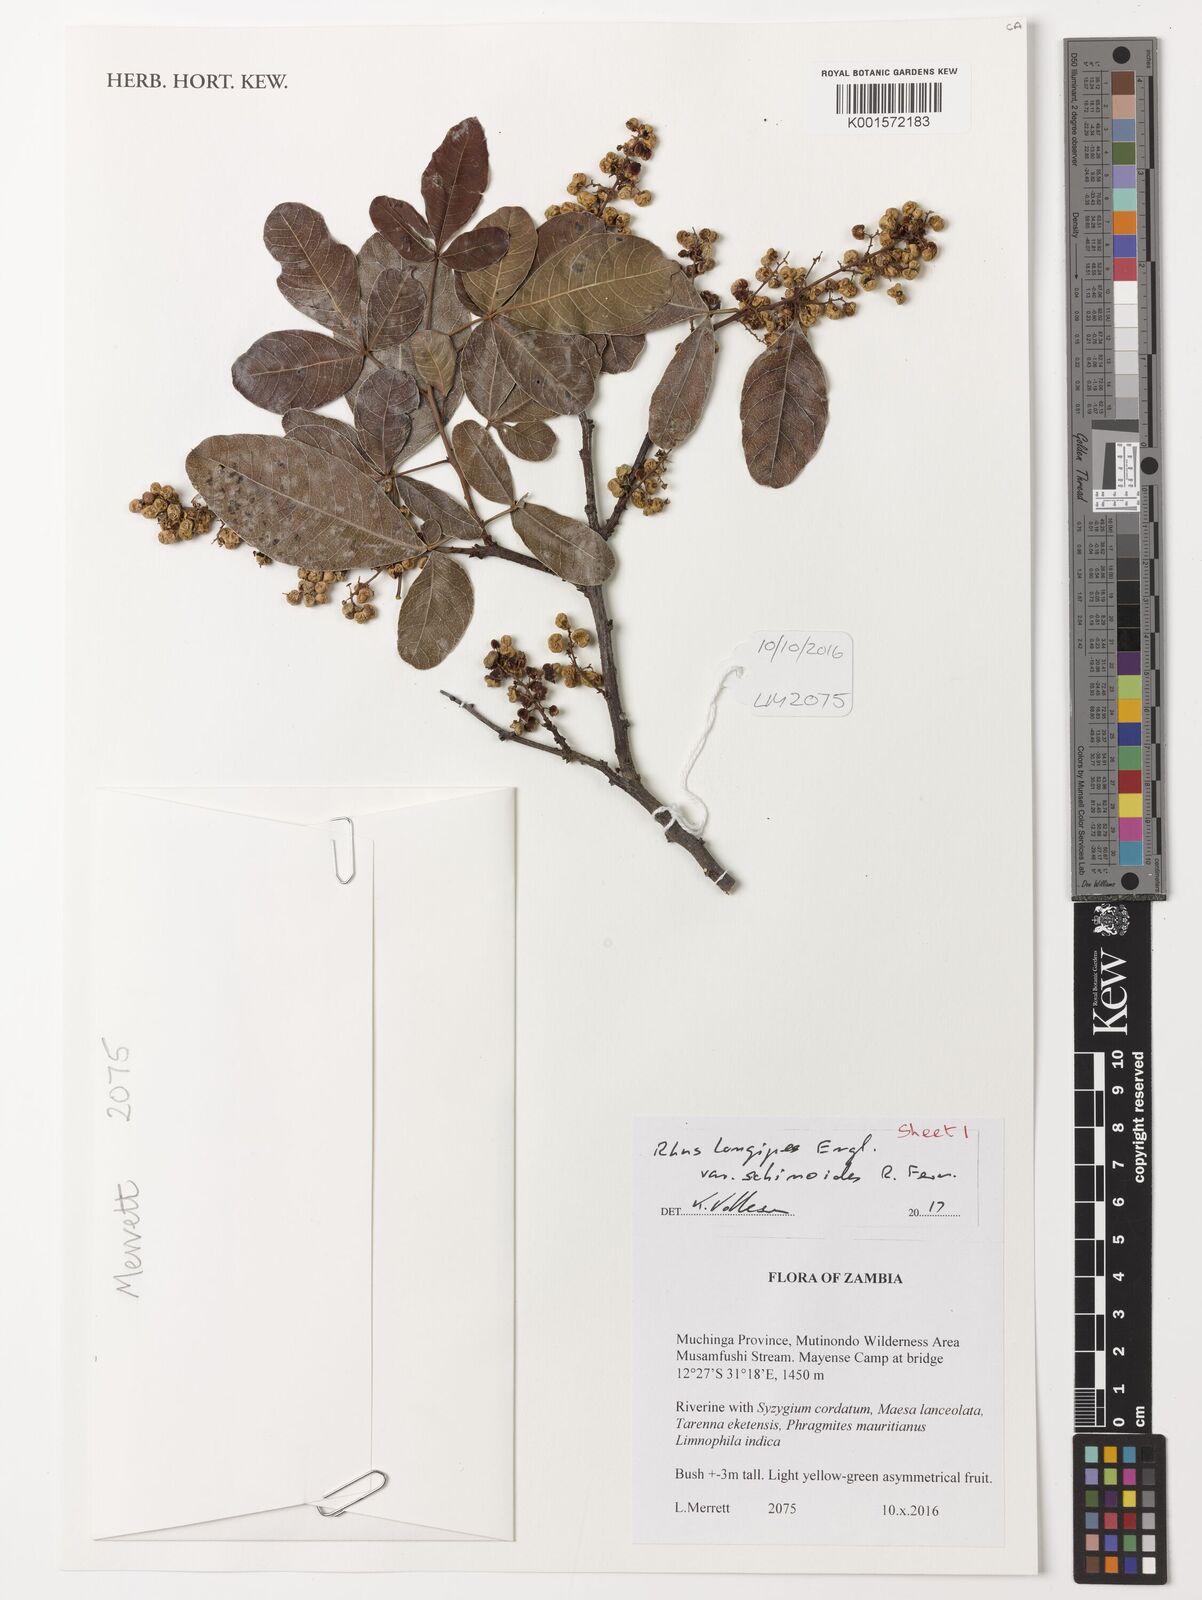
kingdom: Plantae
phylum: Tracheophyta
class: Magnoliopsida
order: Sapindales
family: Anacardiaceae
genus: Searsia
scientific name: Searsia longipes
